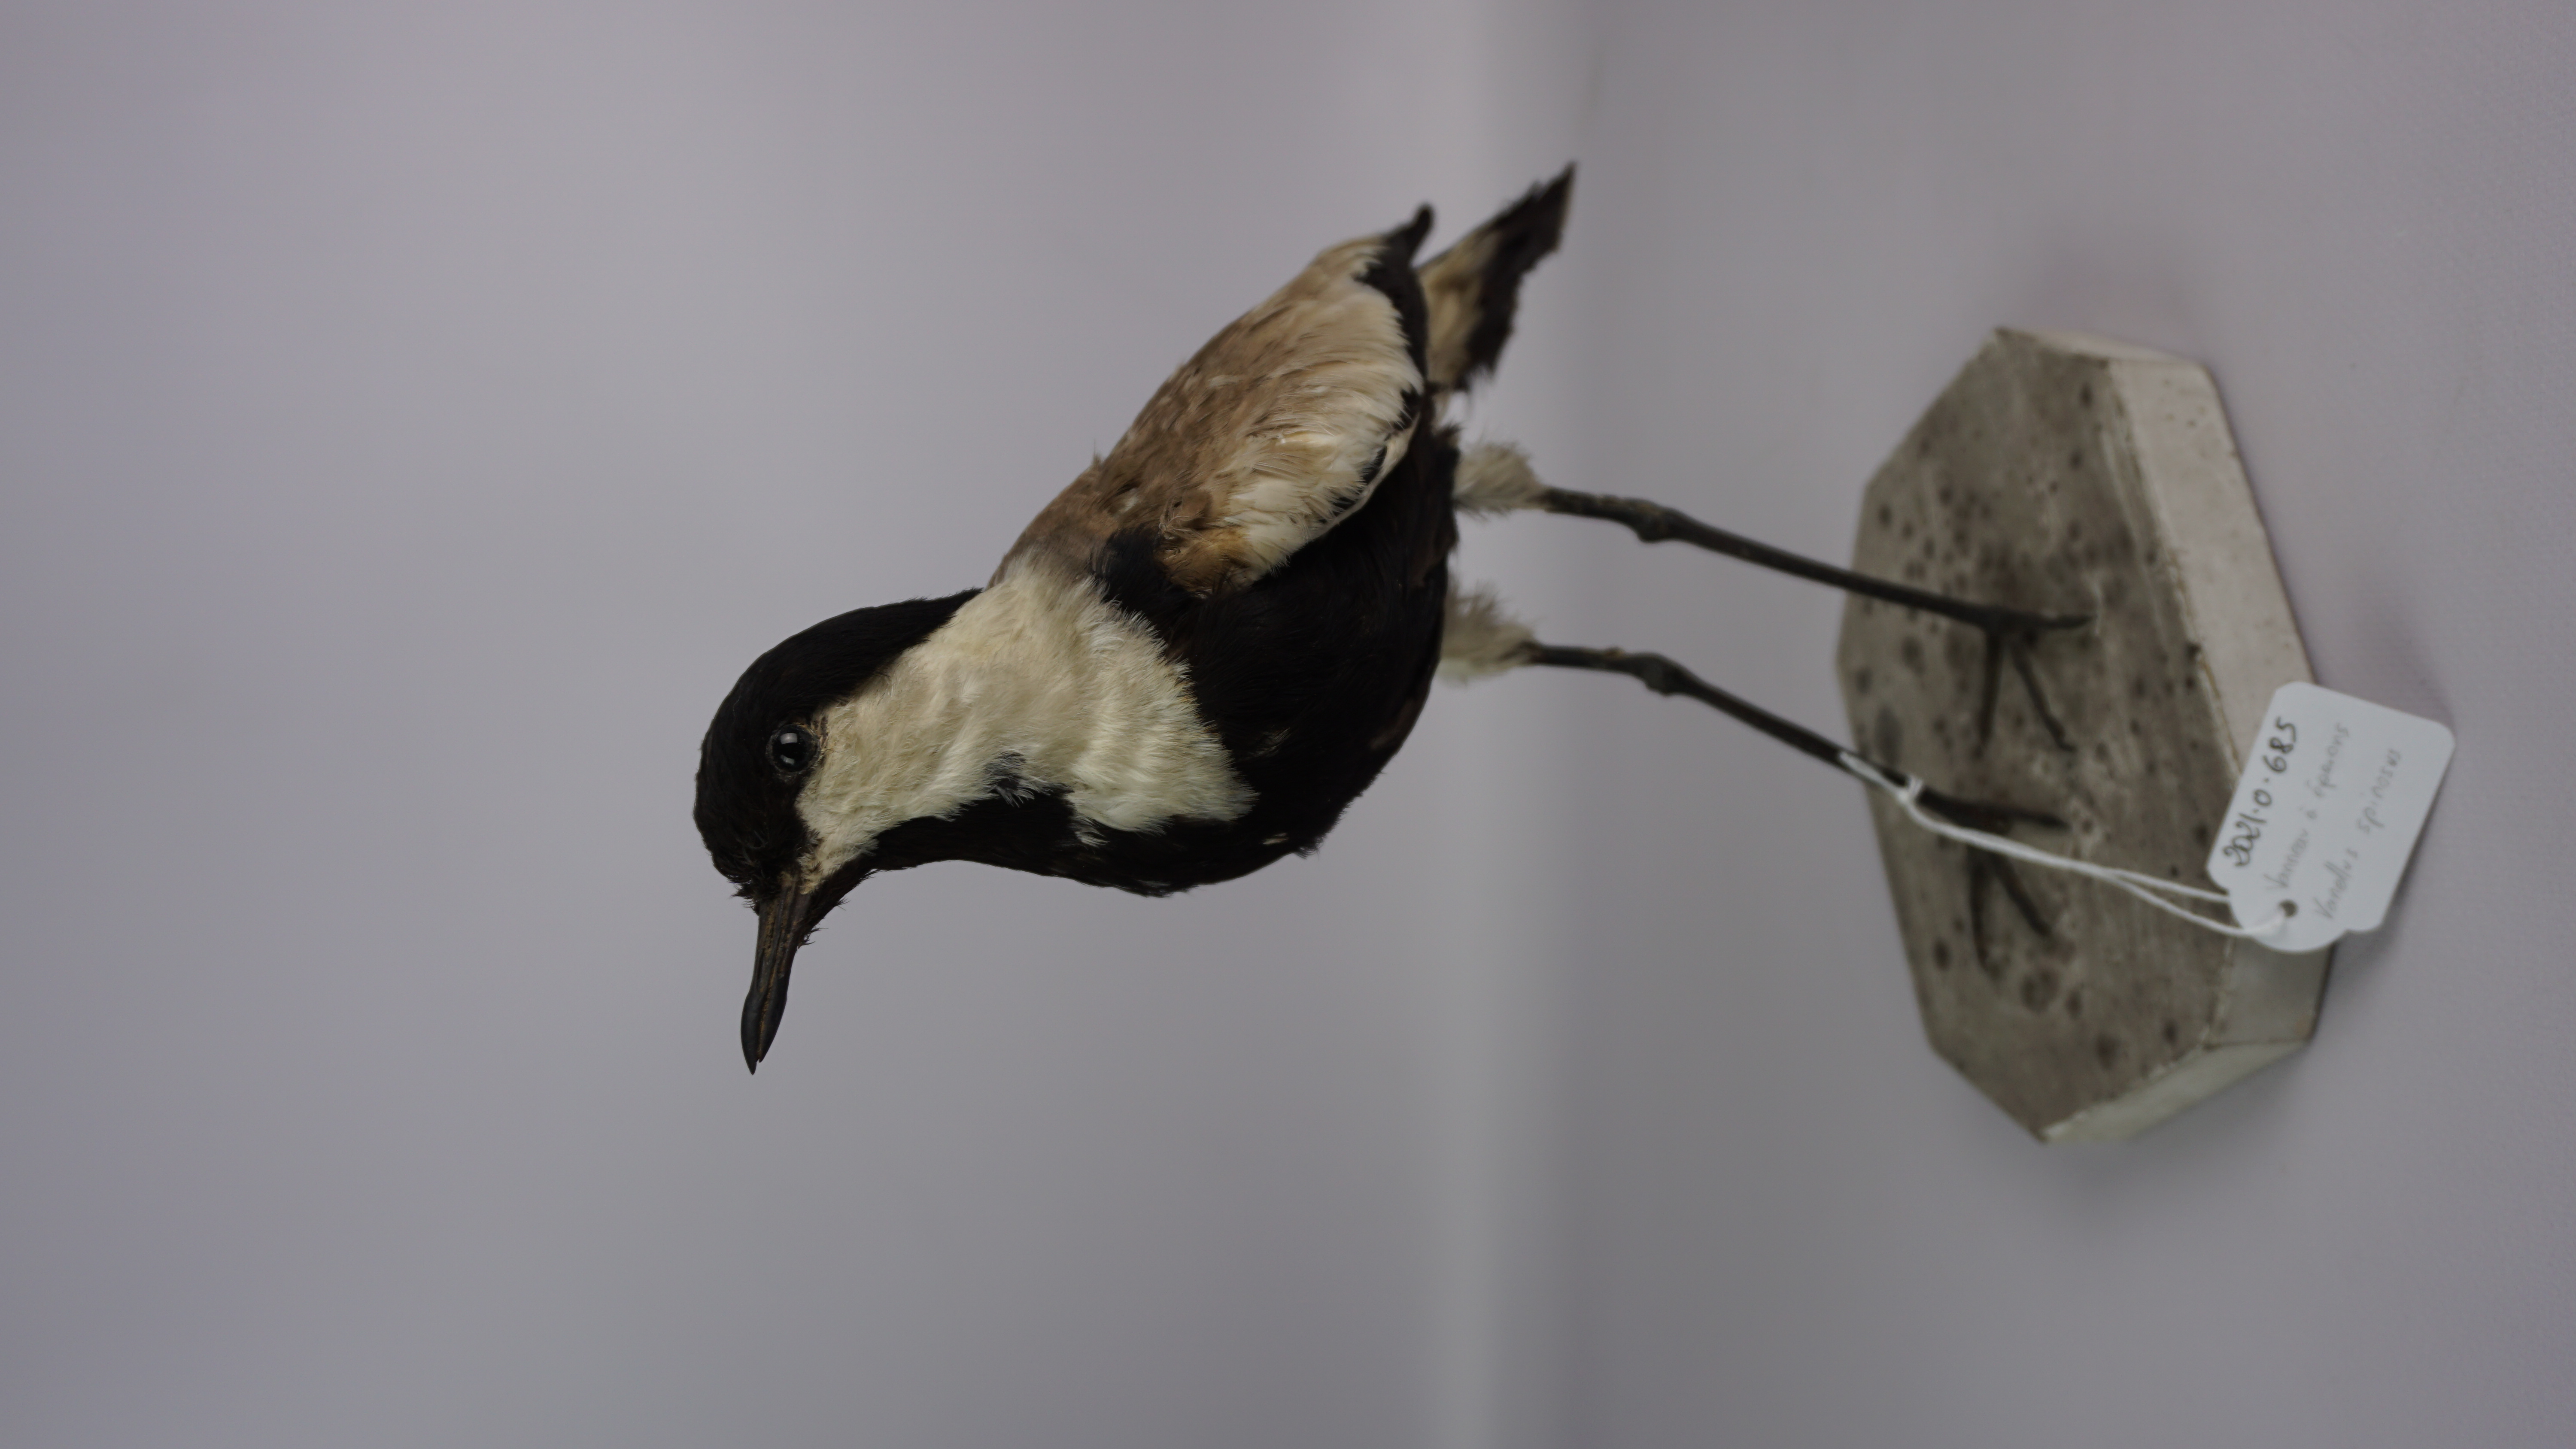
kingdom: Animalia
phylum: Chordata
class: Aves
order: Charadriiformes
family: Charadriidae
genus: Vanellus
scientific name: Vanellus spinosus
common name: Spur-winged lapwing
